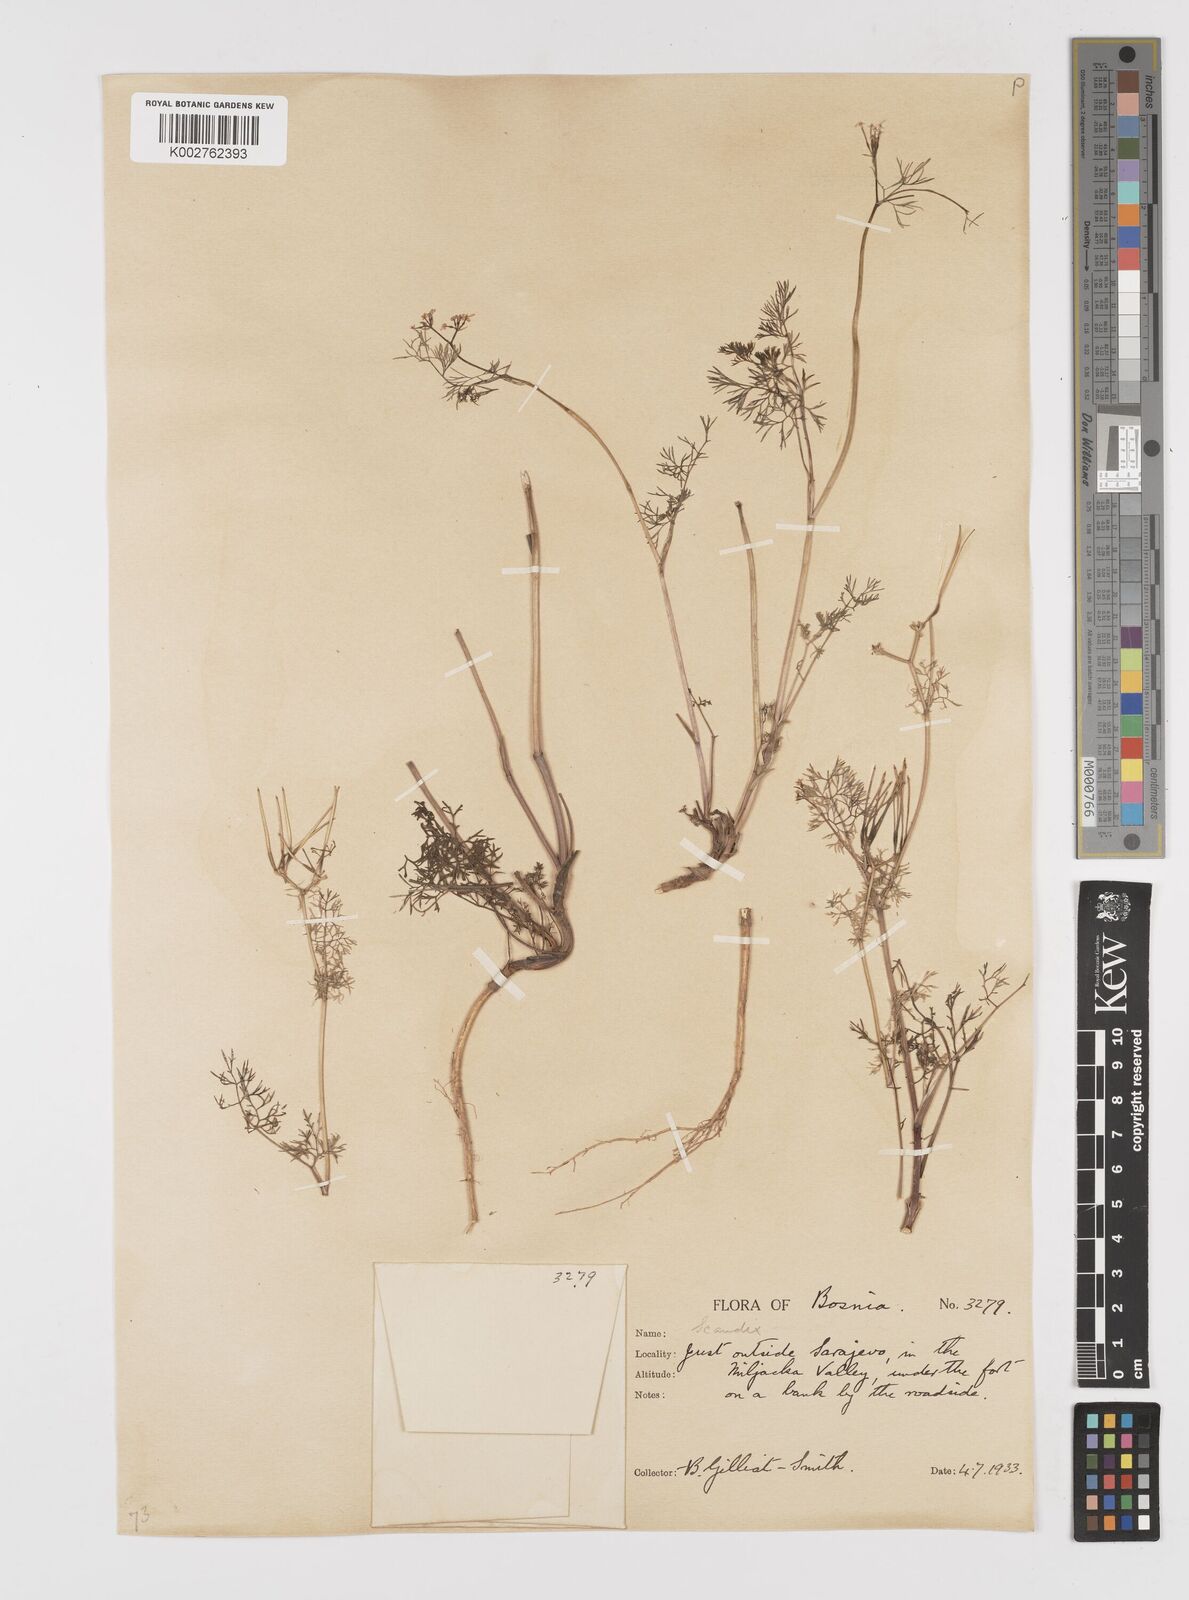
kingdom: Plantae
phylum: Tracheophyta
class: Magnoliopsida
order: Apiales
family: Apiaceae
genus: Scandix
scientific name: Scandix pecten-veneris
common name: Shepherd's-needle
